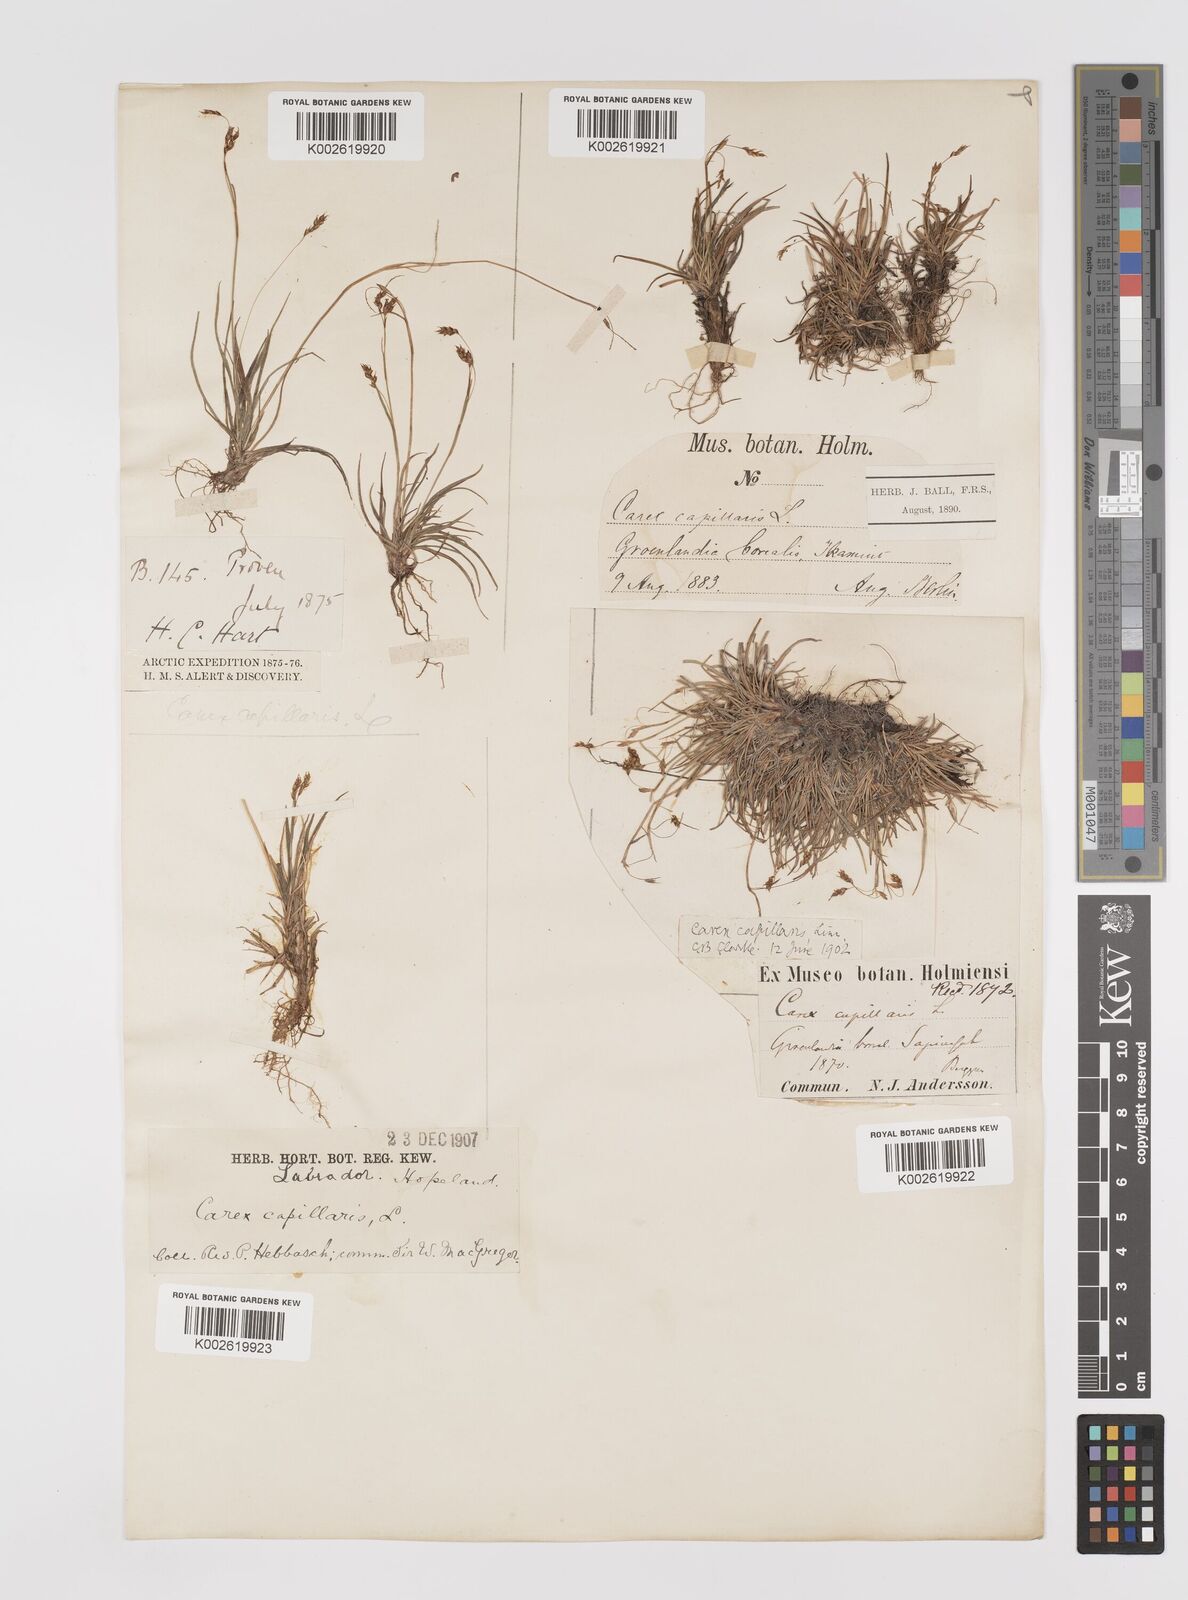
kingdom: Plantae
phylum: Tracheophyta
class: Liliopsida
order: Poales
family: Cyperaceae
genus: Carex
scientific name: Carex capillaris
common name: Hair sedge
